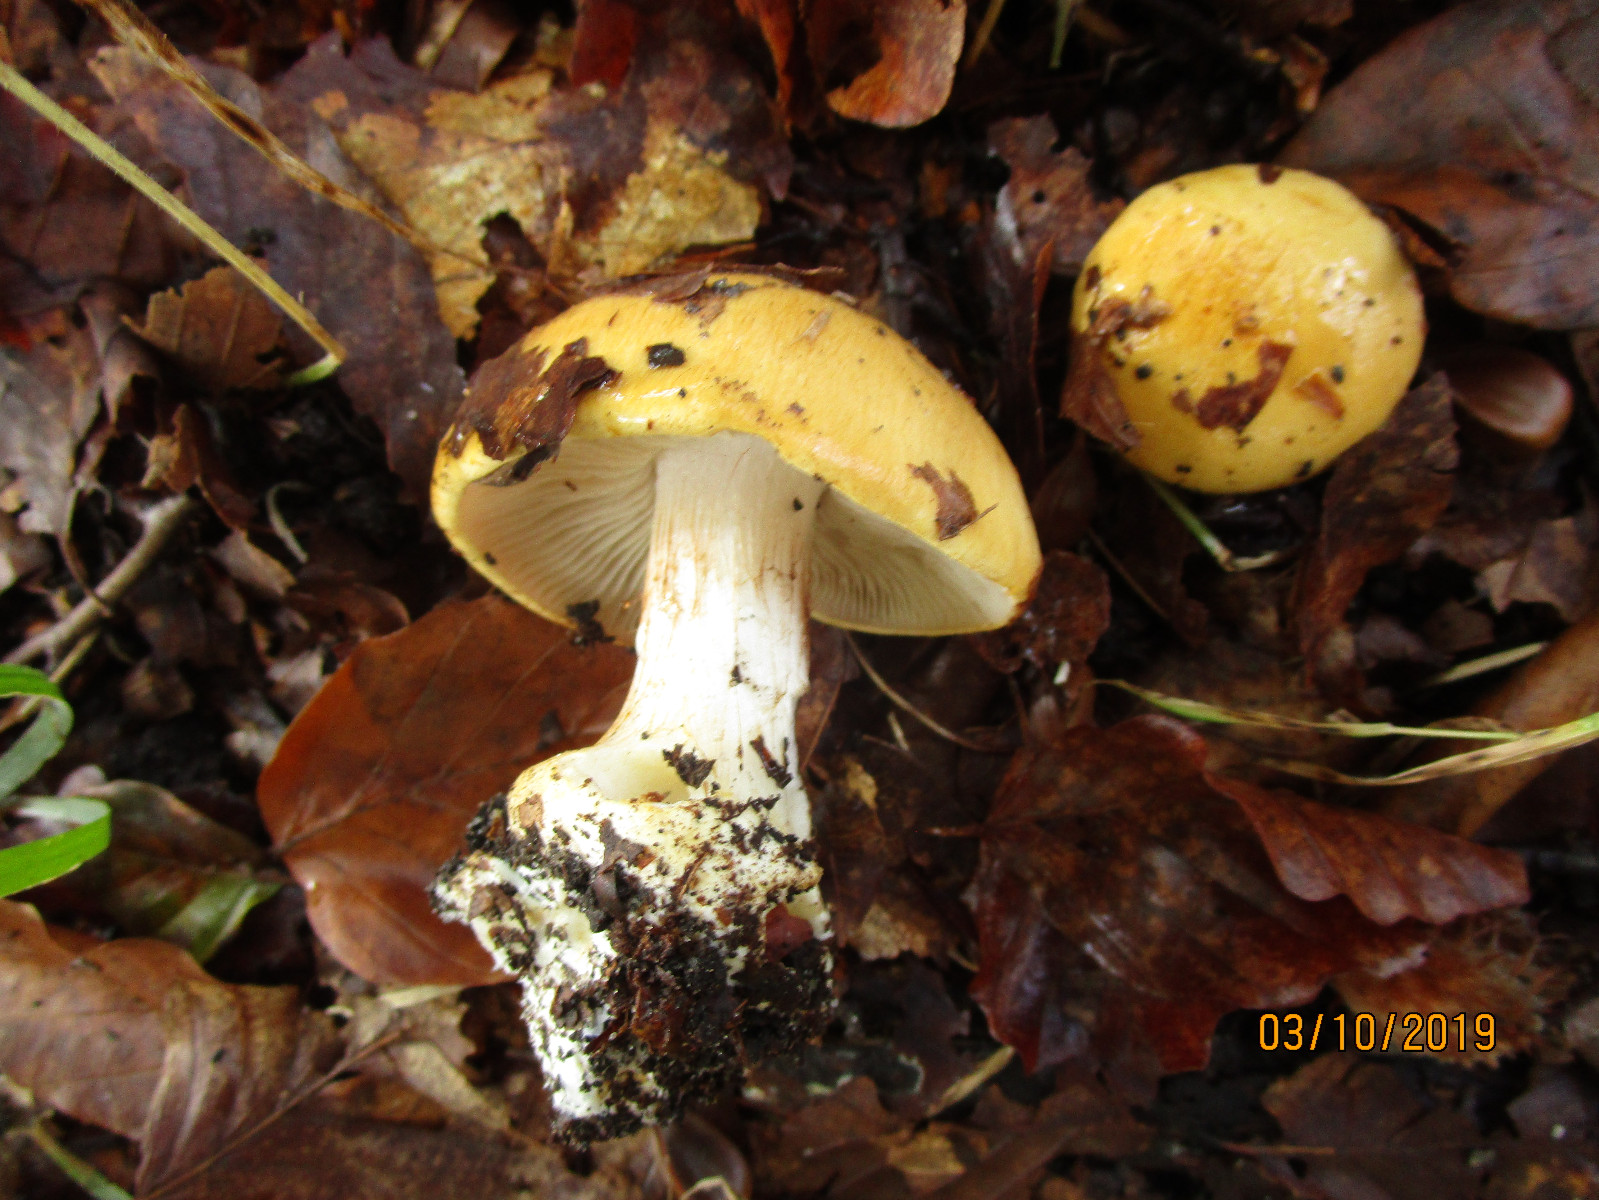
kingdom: Fungi
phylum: Basidiomycota
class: Agaricomycetes
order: Agaricales
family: Cortinariaceae
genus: Phlegmacium
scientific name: Phlegmacium rhizophorum
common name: finkornet slørhat
